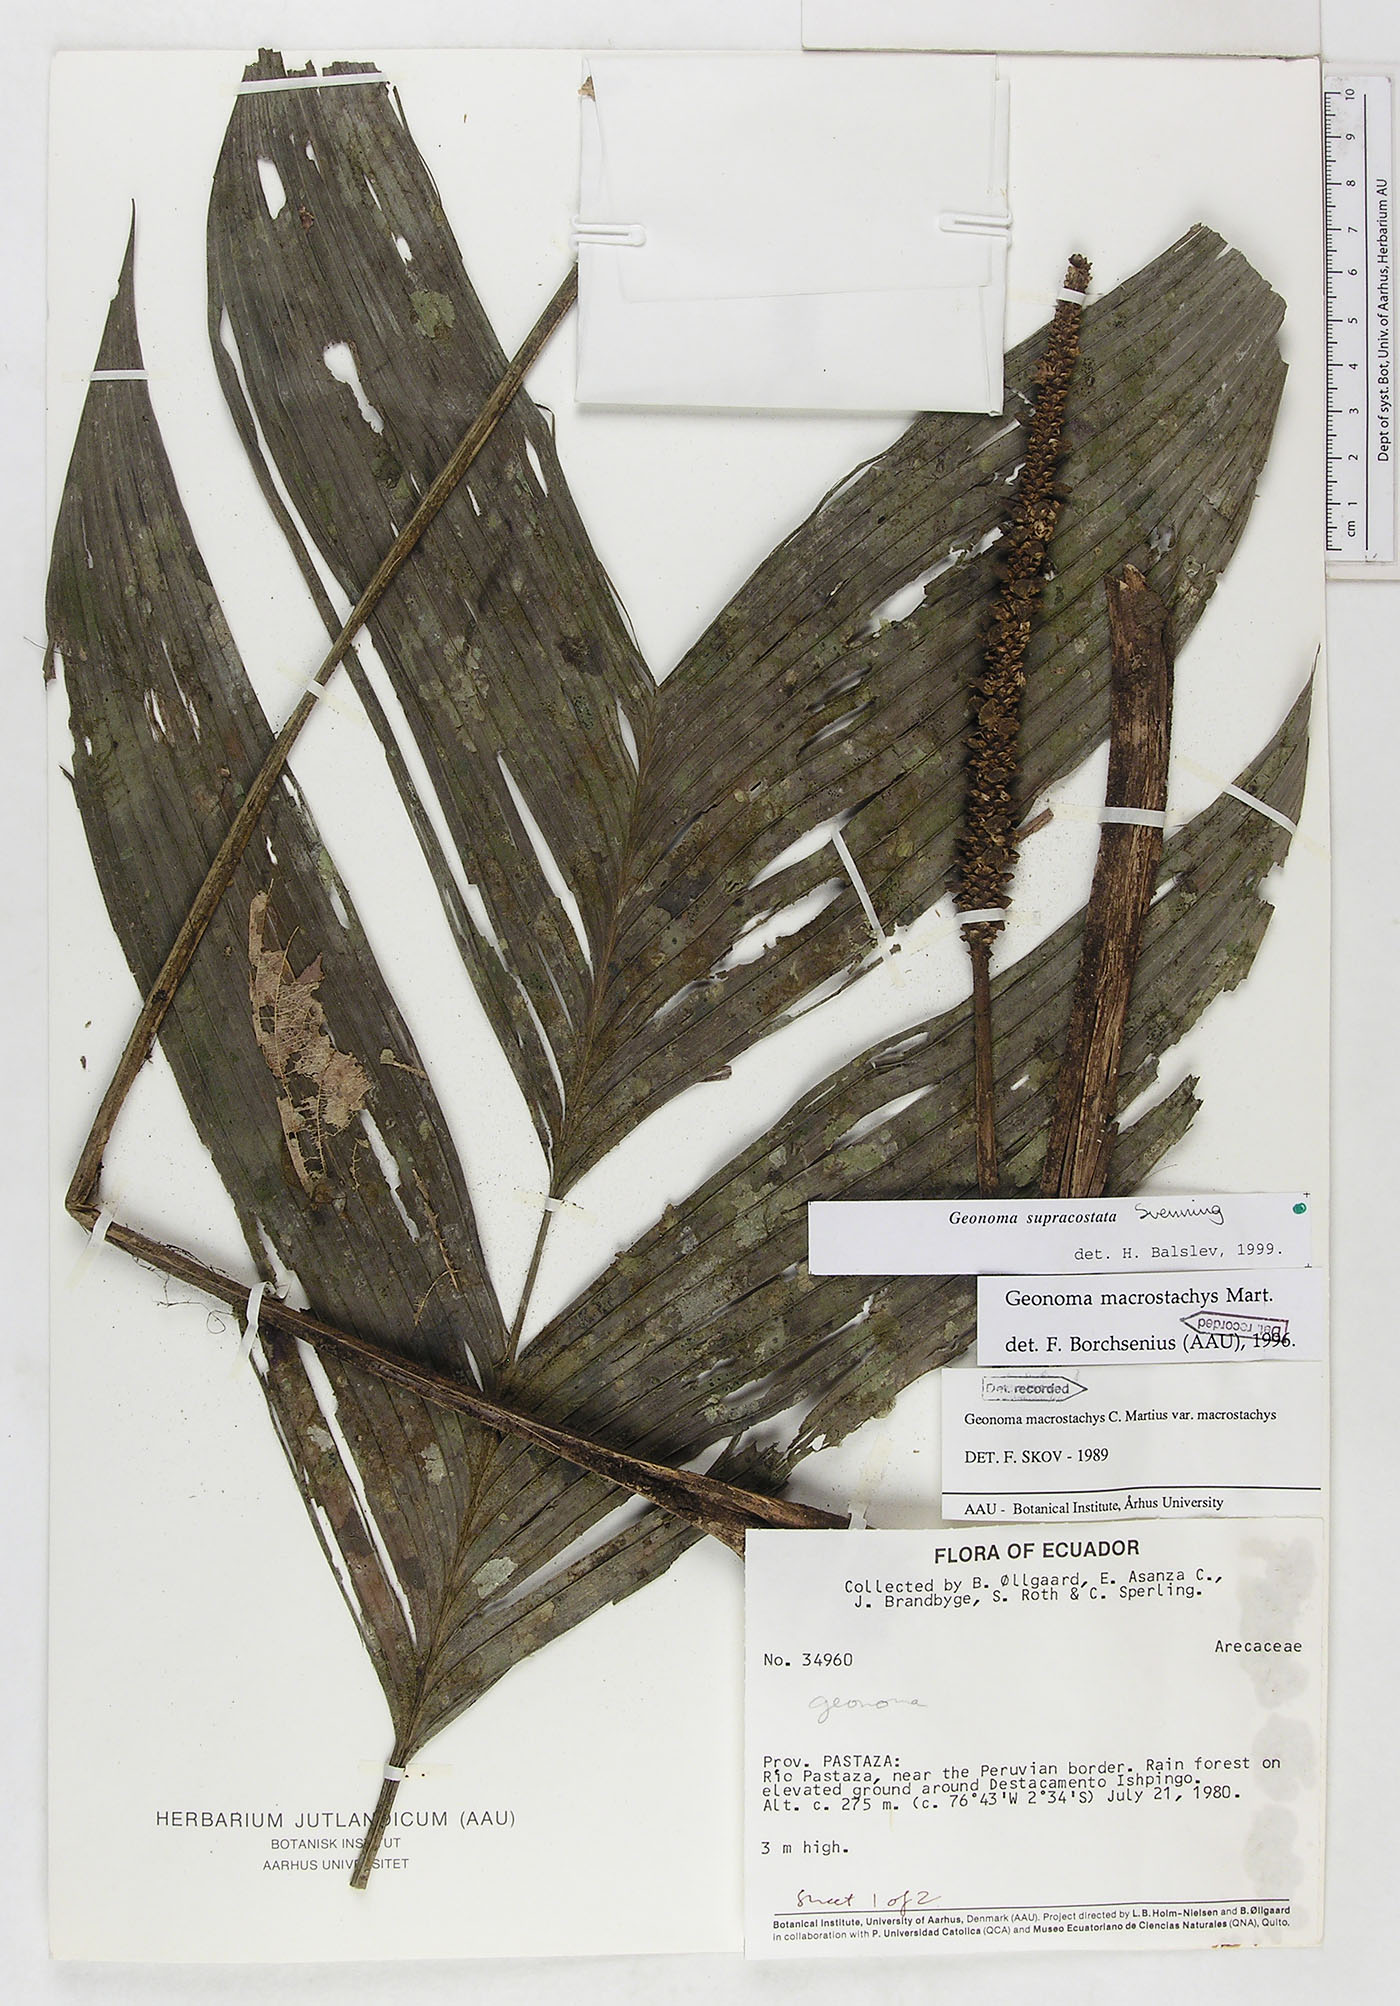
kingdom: Plantae
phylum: Tracheophyta
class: Liliopsida
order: Arecales
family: Arecaceae
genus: Geonoma
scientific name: Geonoma macrostachys
